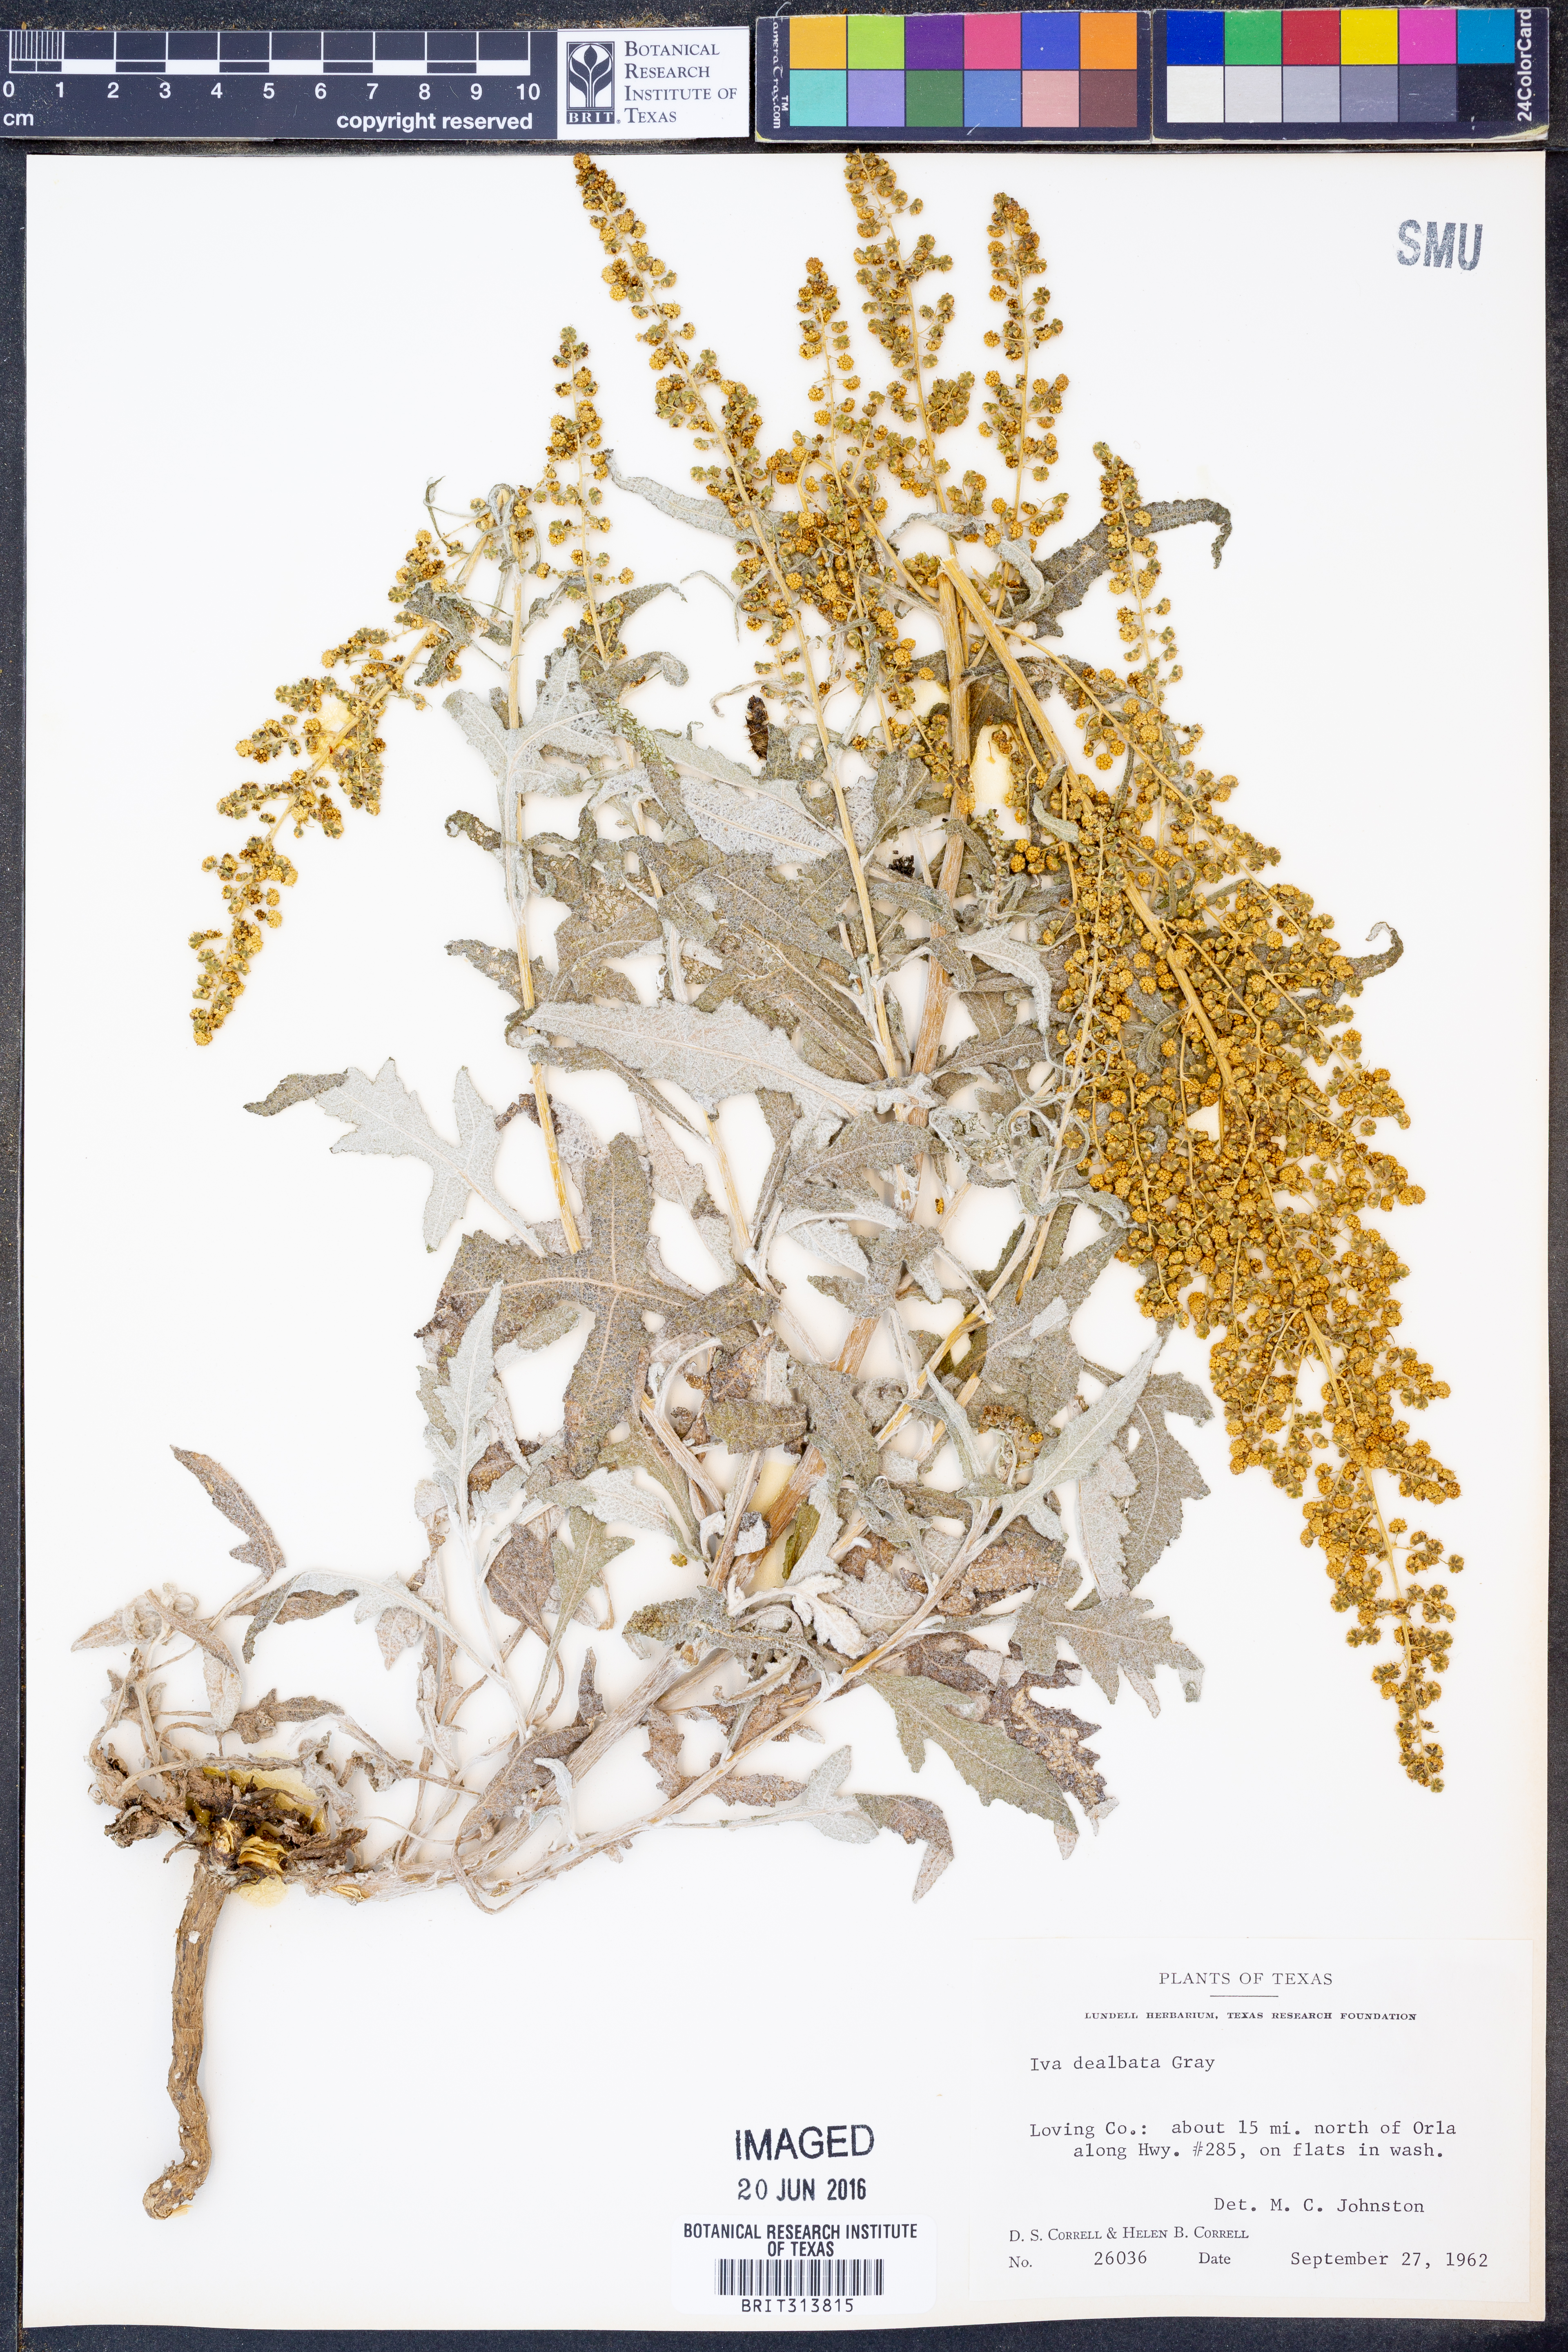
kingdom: Plantae
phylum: Tracheophyta
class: Magnoliopsida
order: Asterales
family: Asteraceae
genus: Euphrosyne
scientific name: Euphrosyne dealbata
